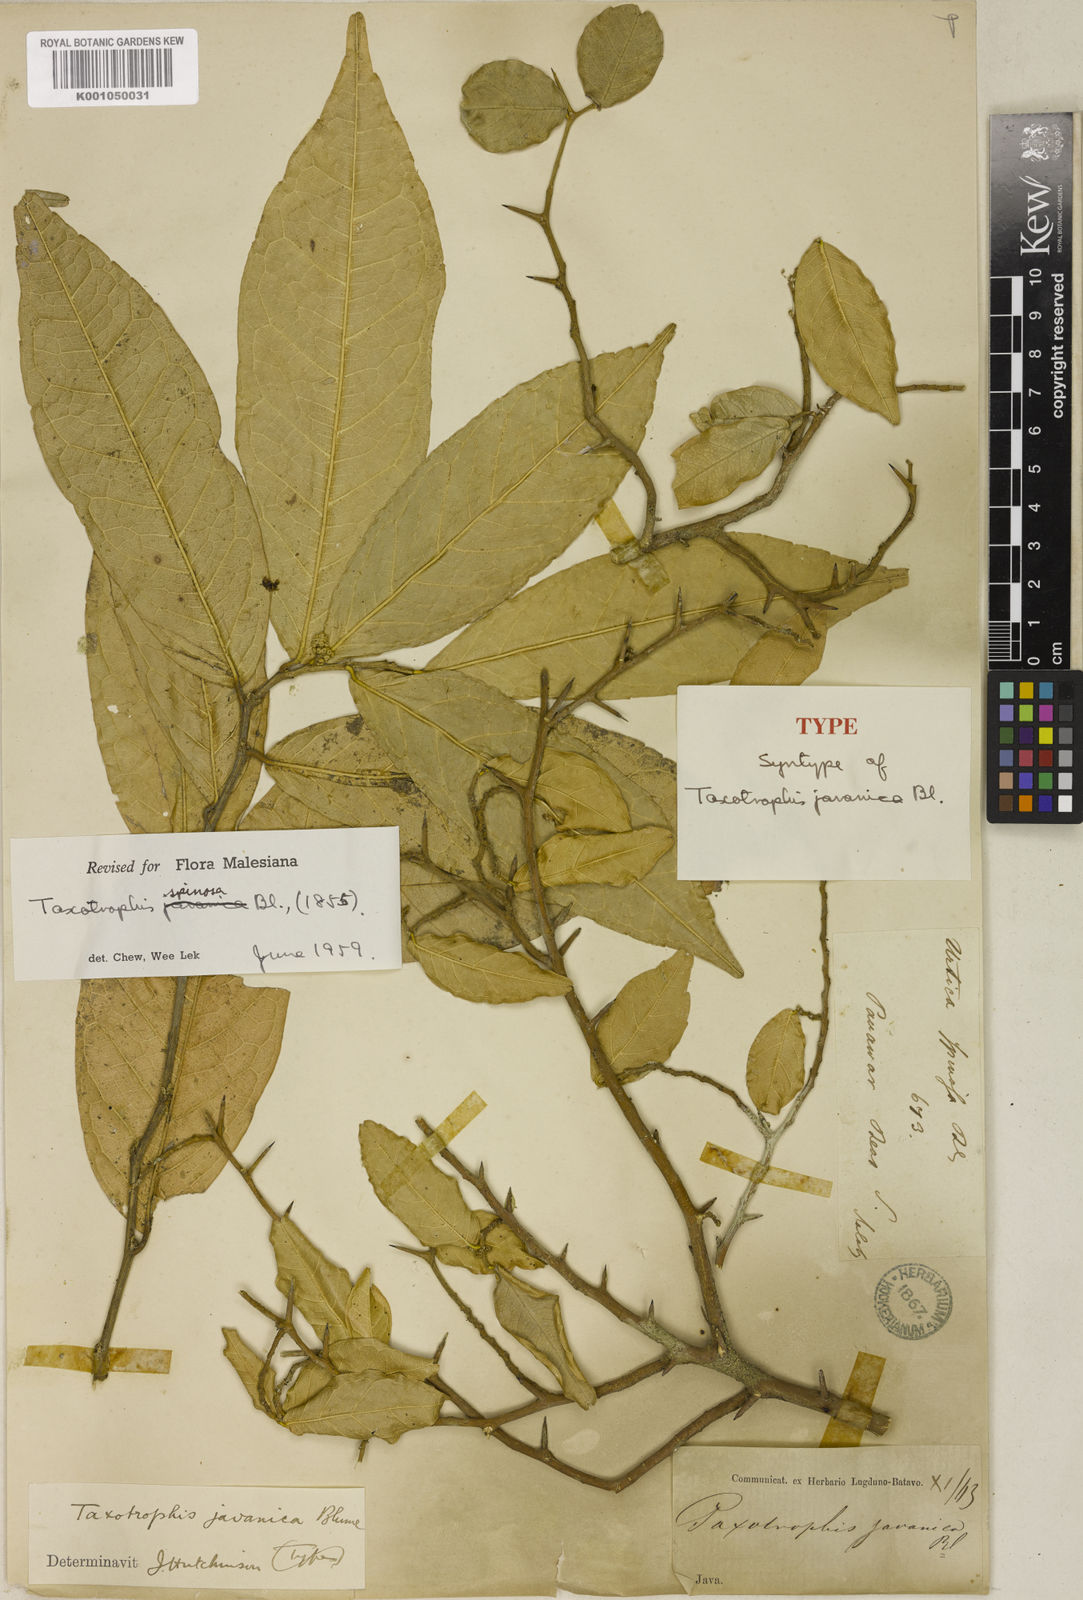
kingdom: Plantae
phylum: Tracheophyta
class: Magnoliopsida
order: Rosales
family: Moraceae
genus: Taxotrophis
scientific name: Taxotrophis spinosa
